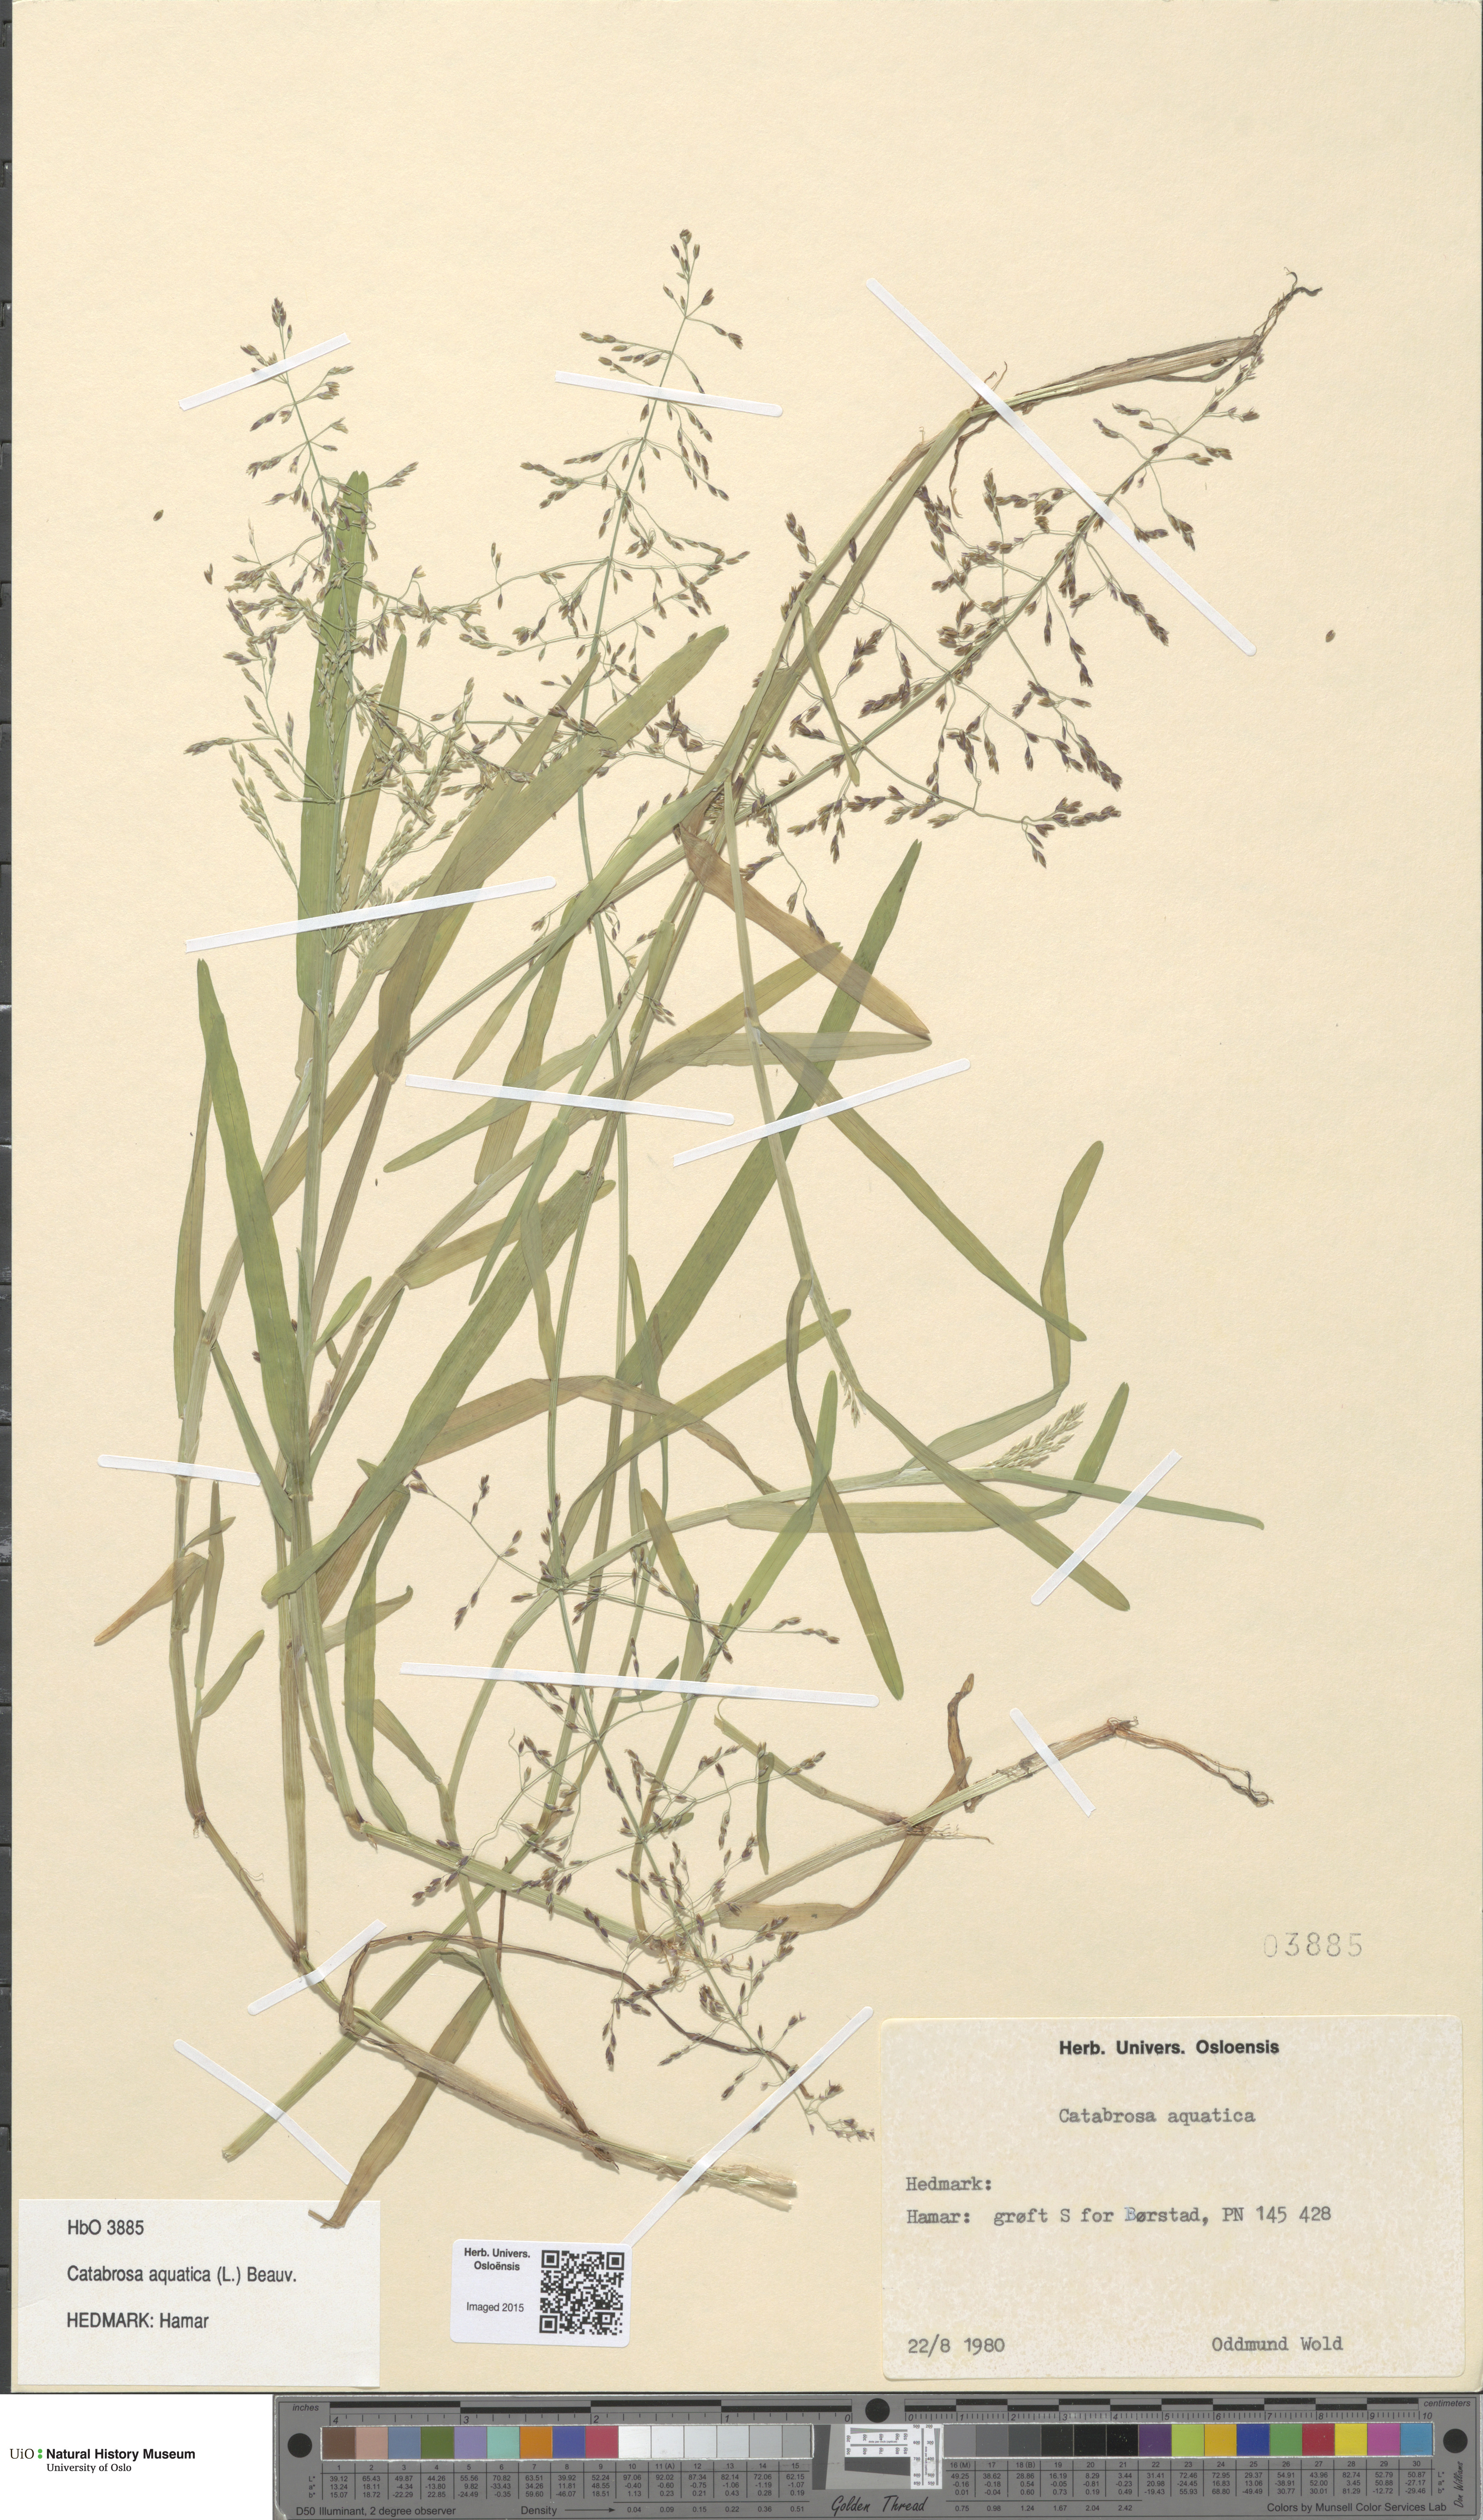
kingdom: Plantae
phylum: Tracheophyta
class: Liliopsida
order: Poales
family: Poaceae
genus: Catabrosa
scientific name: Catabrosa aquatica
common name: Whorl-grass
